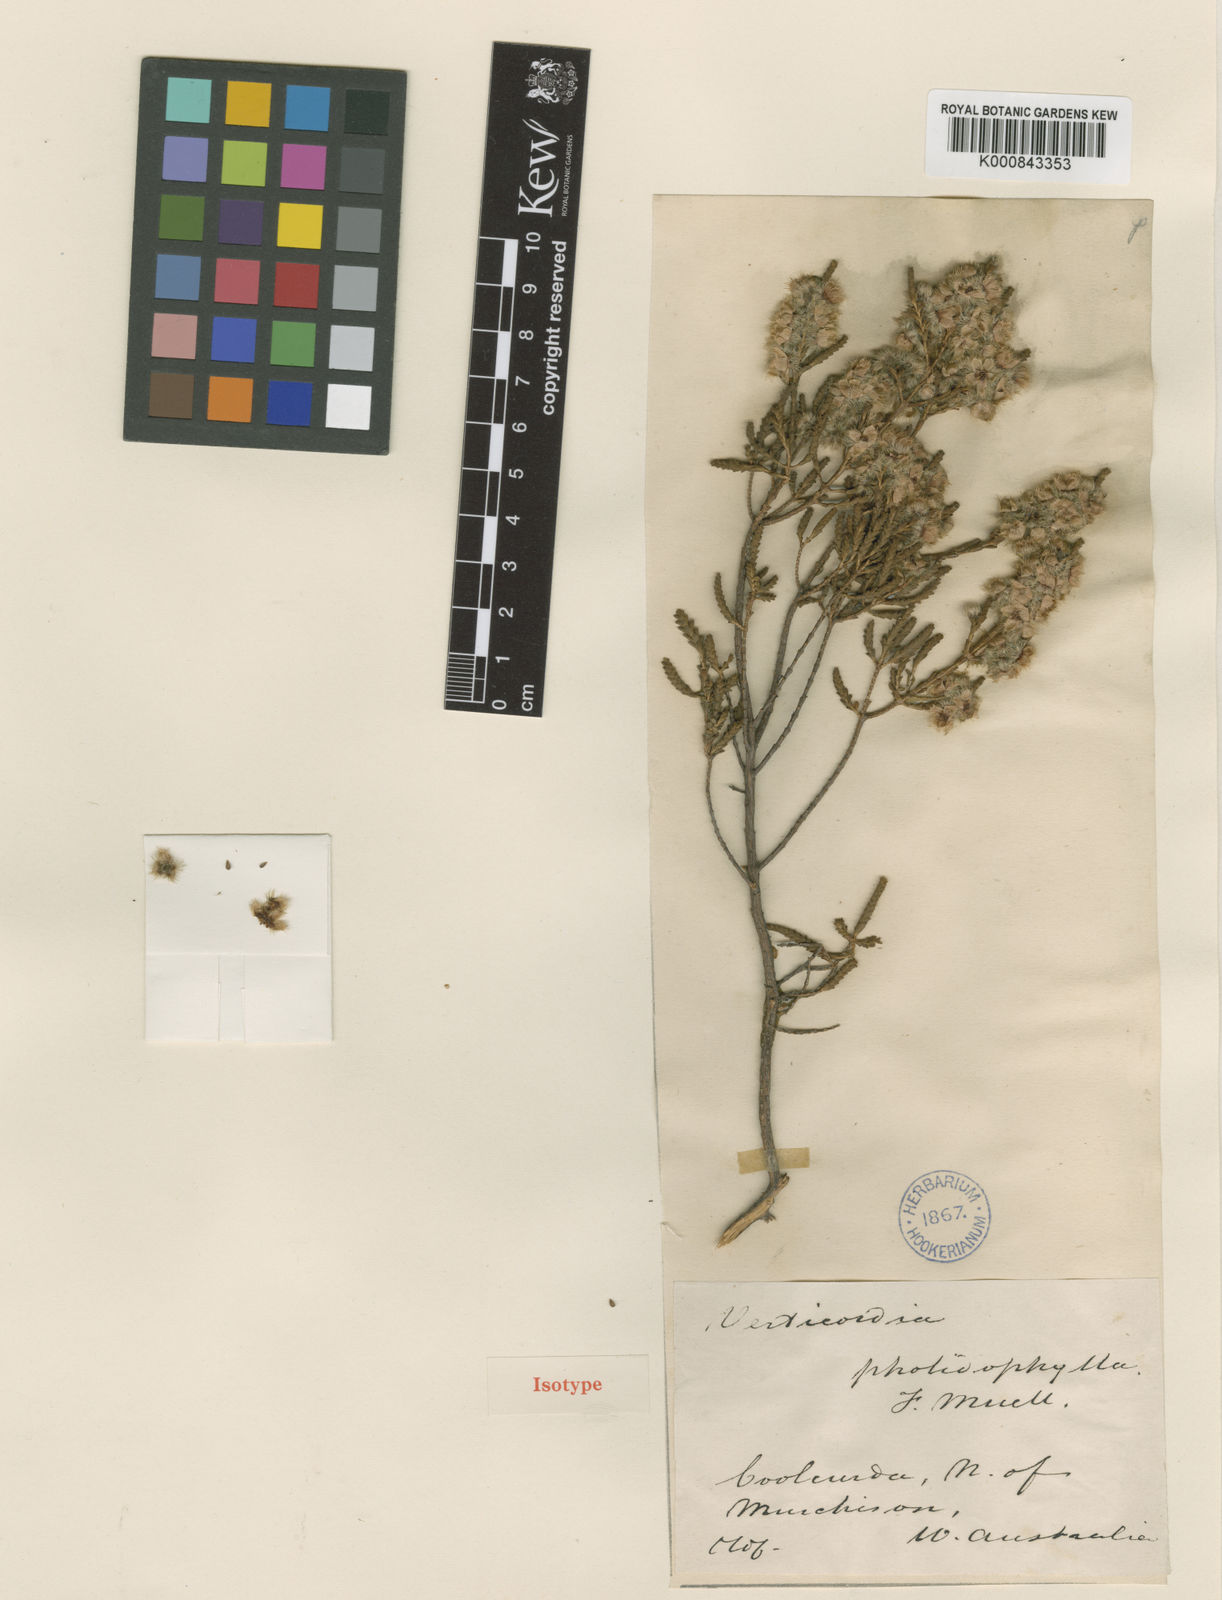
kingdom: Plantae
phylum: Tracheophyta
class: Magnoliopsida
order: Myrtales
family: Myrtaceae
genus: Verticordia
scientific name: Verticordia pholidophylla
